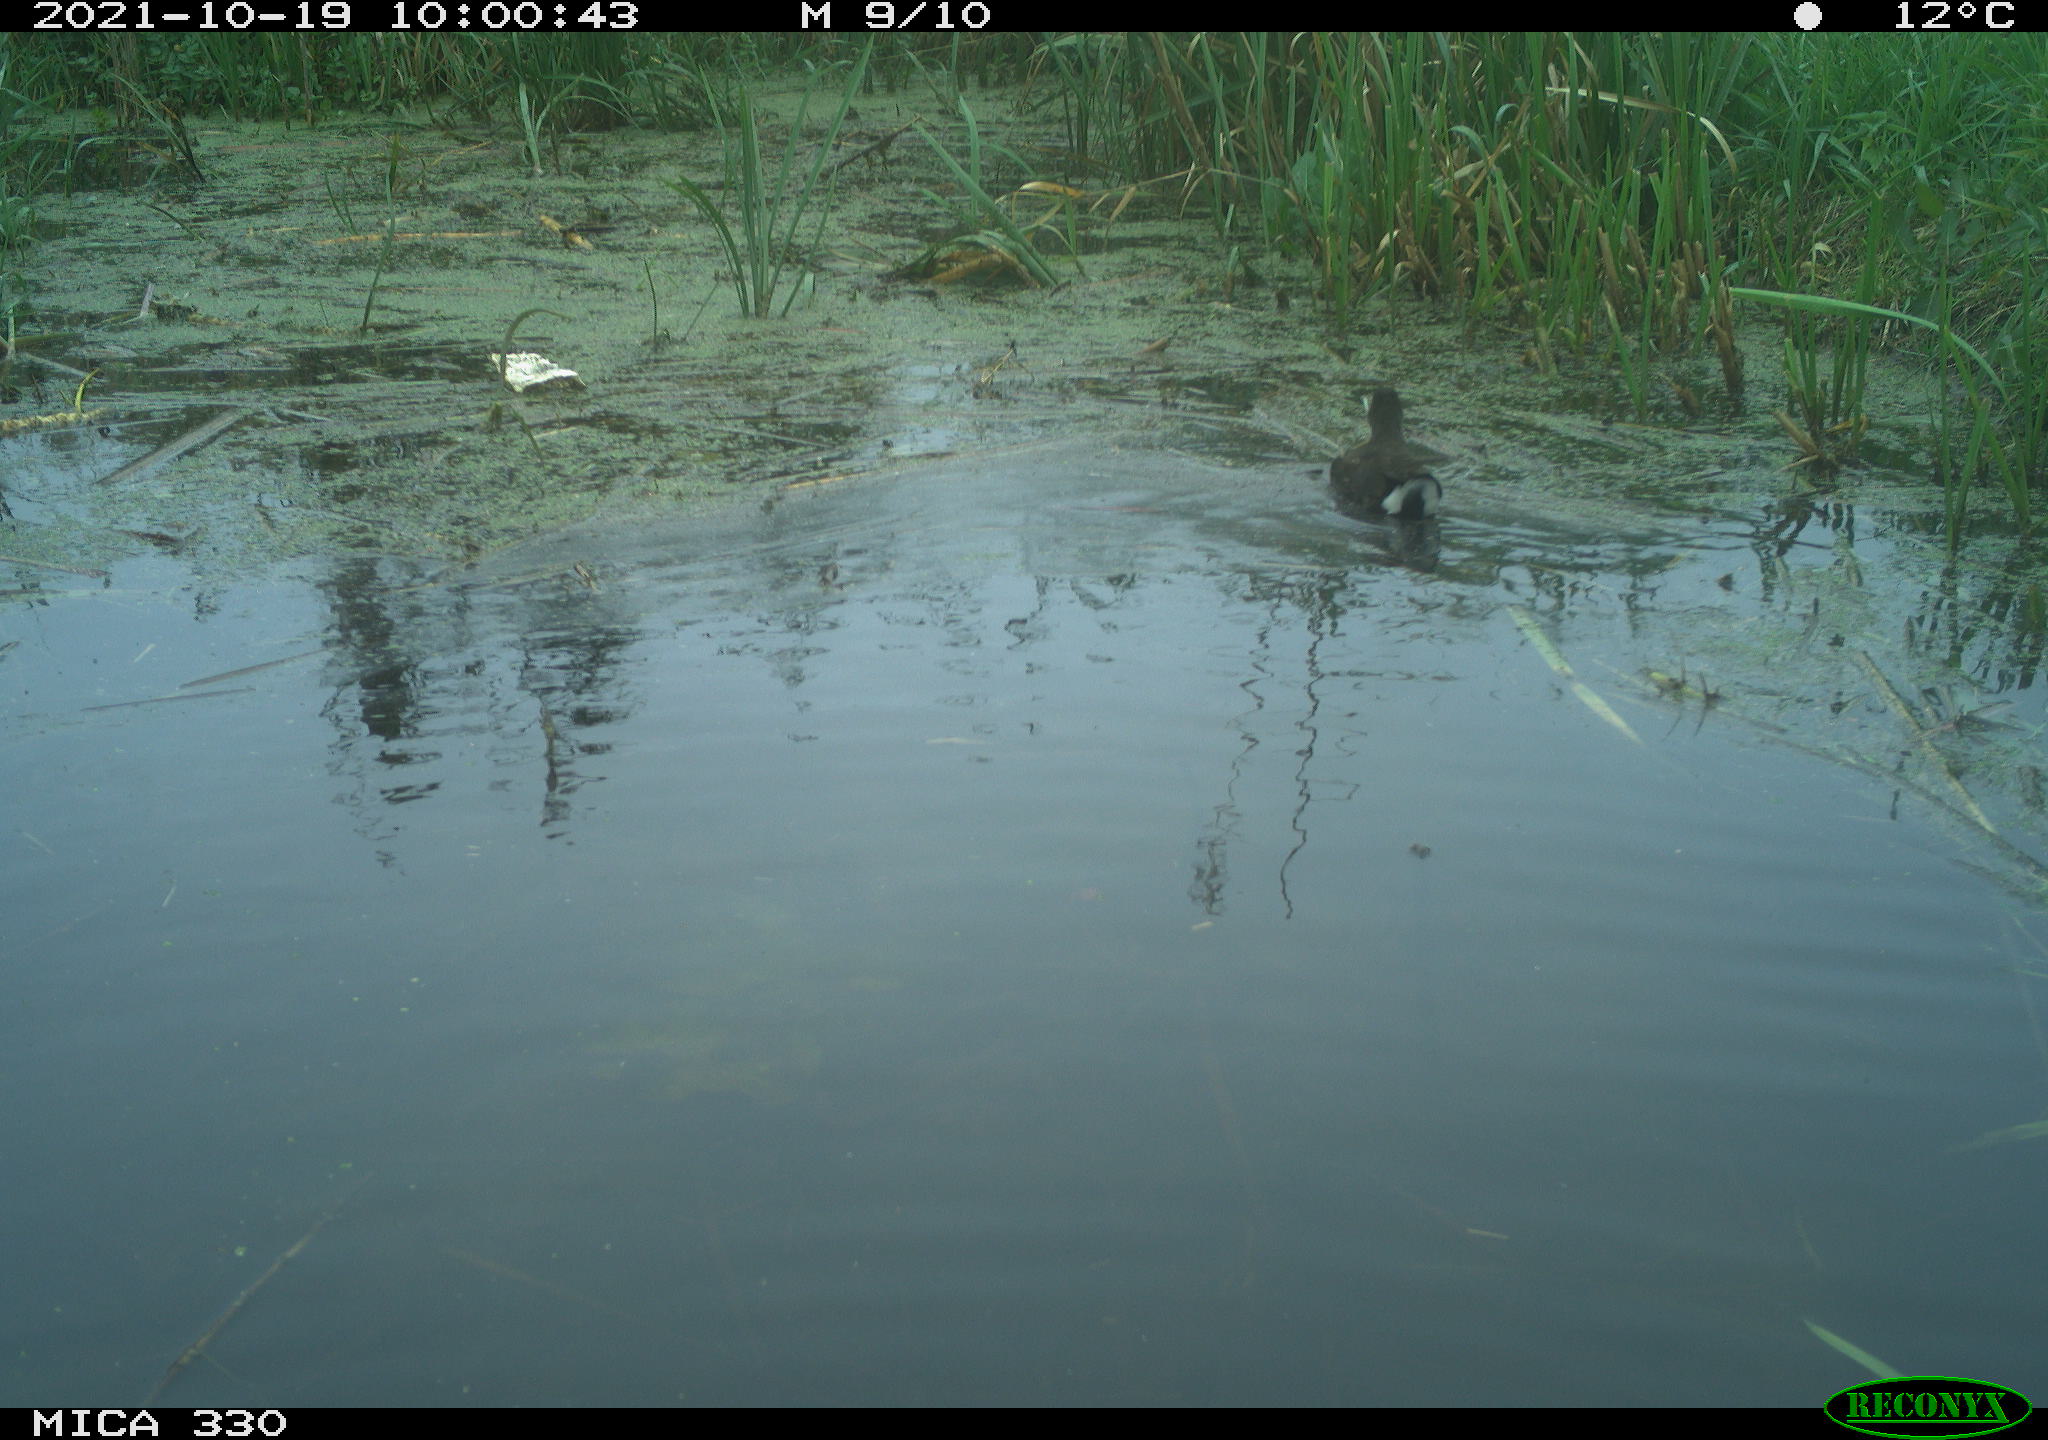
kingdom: Animalia
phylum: Chordata
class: Aves
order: Gruiformes
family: Rallidae
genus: Gallinula
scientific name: Gallinula chloropus
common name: Common moorhen
